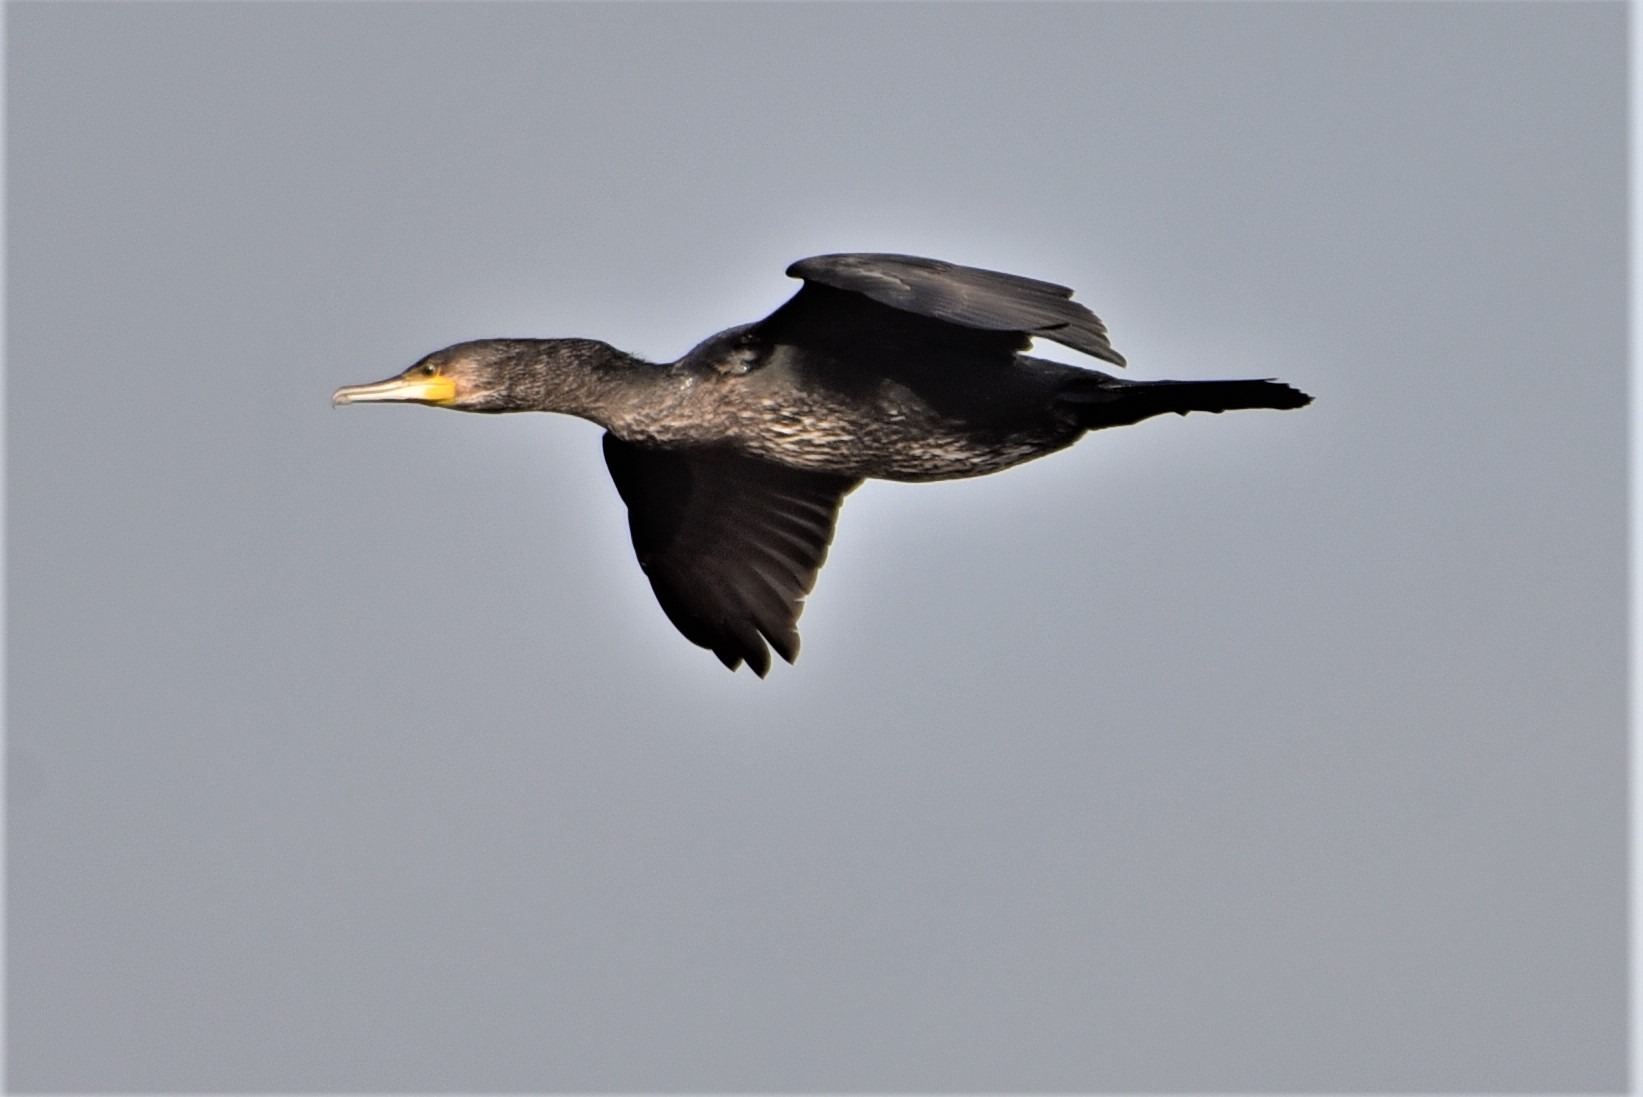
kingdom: Animalia
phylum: Chordata
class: Aves
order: Suliformes
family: Phalacrocoracidae
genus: Phalacrocorax
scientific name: Phalacrocorax carbo
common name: Skarv
